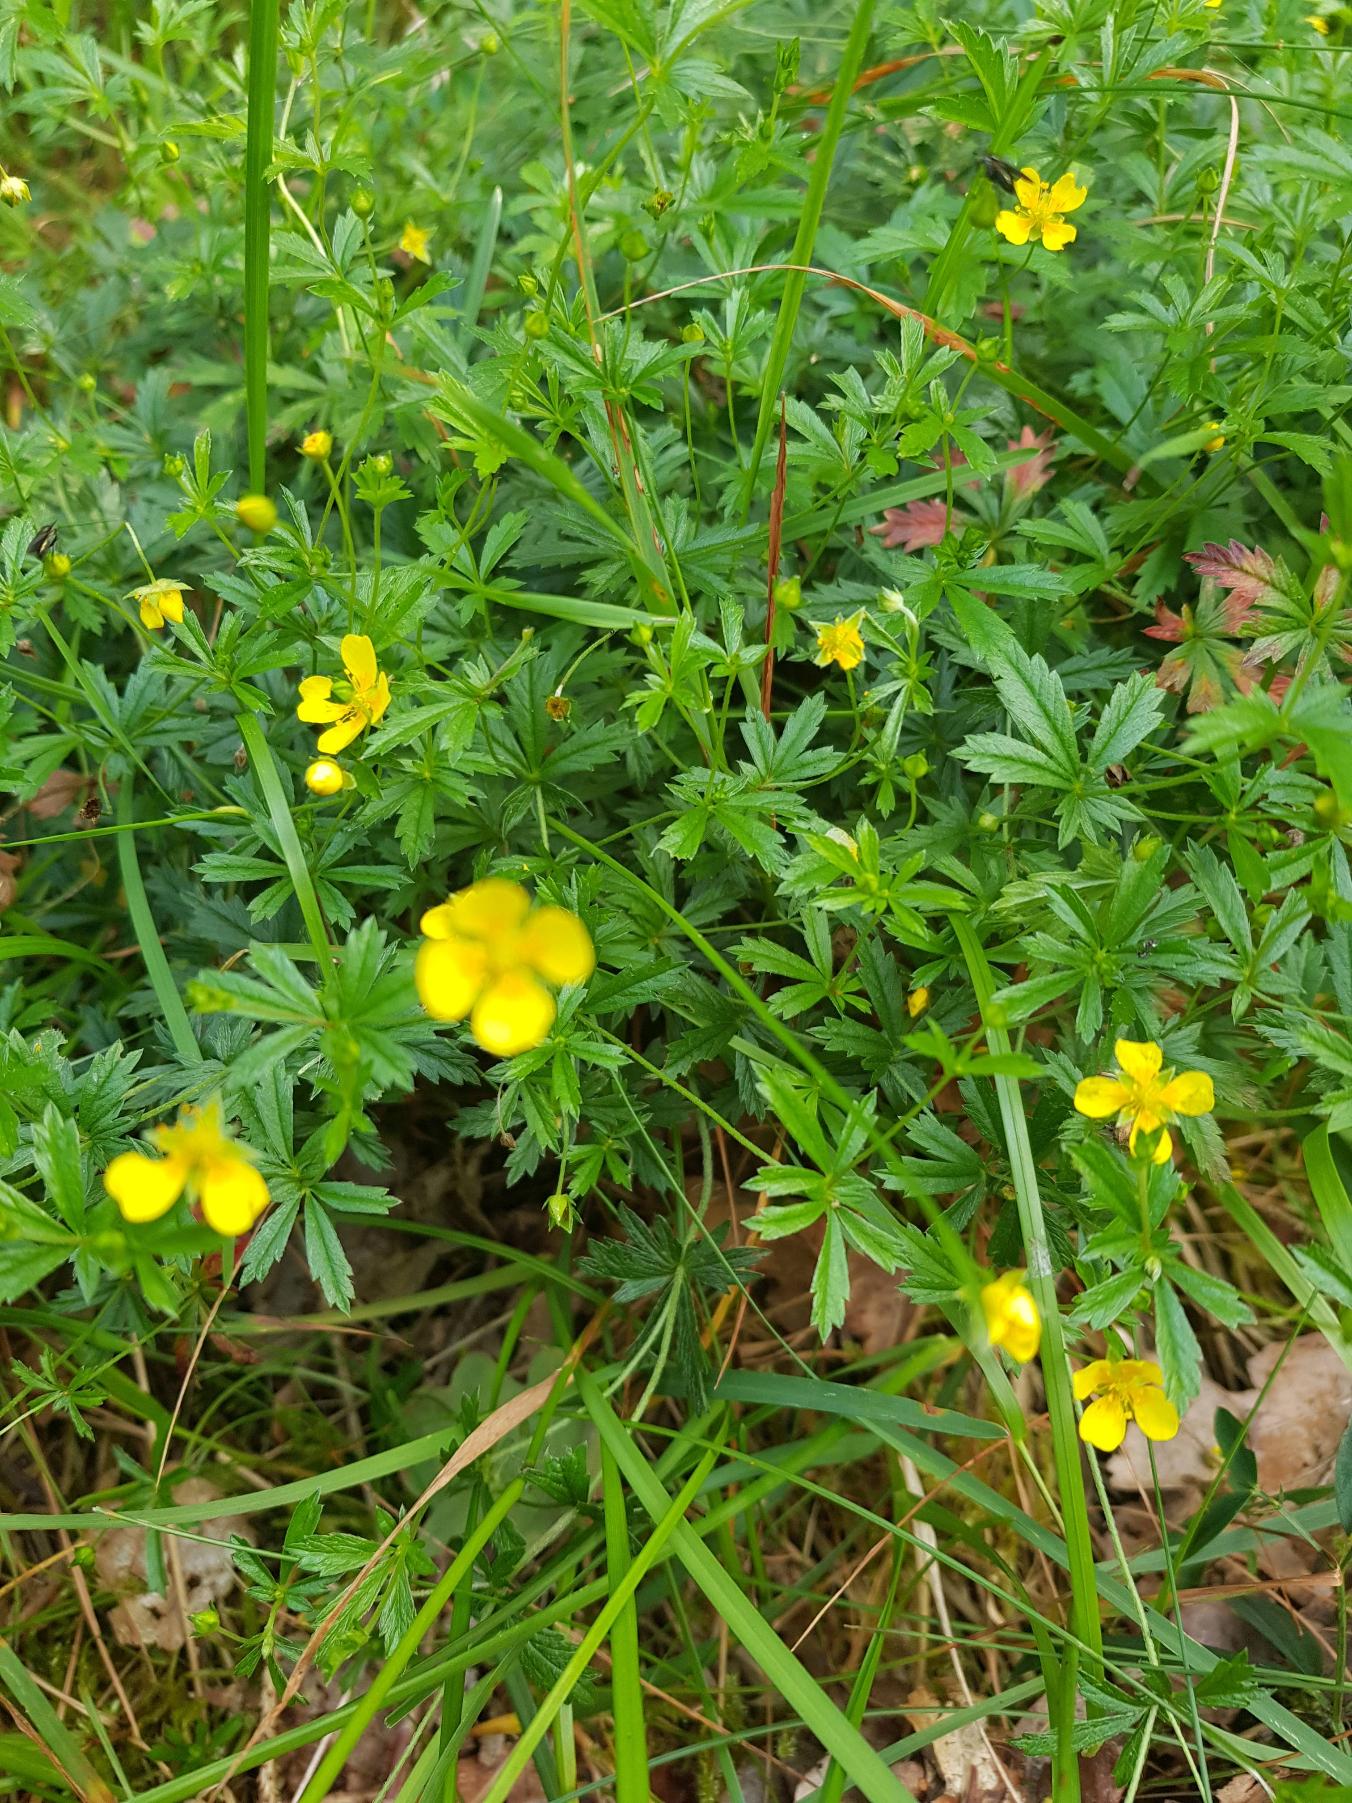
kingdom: Plantae
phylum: Tracheophyta
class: Magnoliopsida
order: Rosales
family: Rosaceae
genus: Potentilla
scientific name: Potentilla erecta
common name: Tormentil
